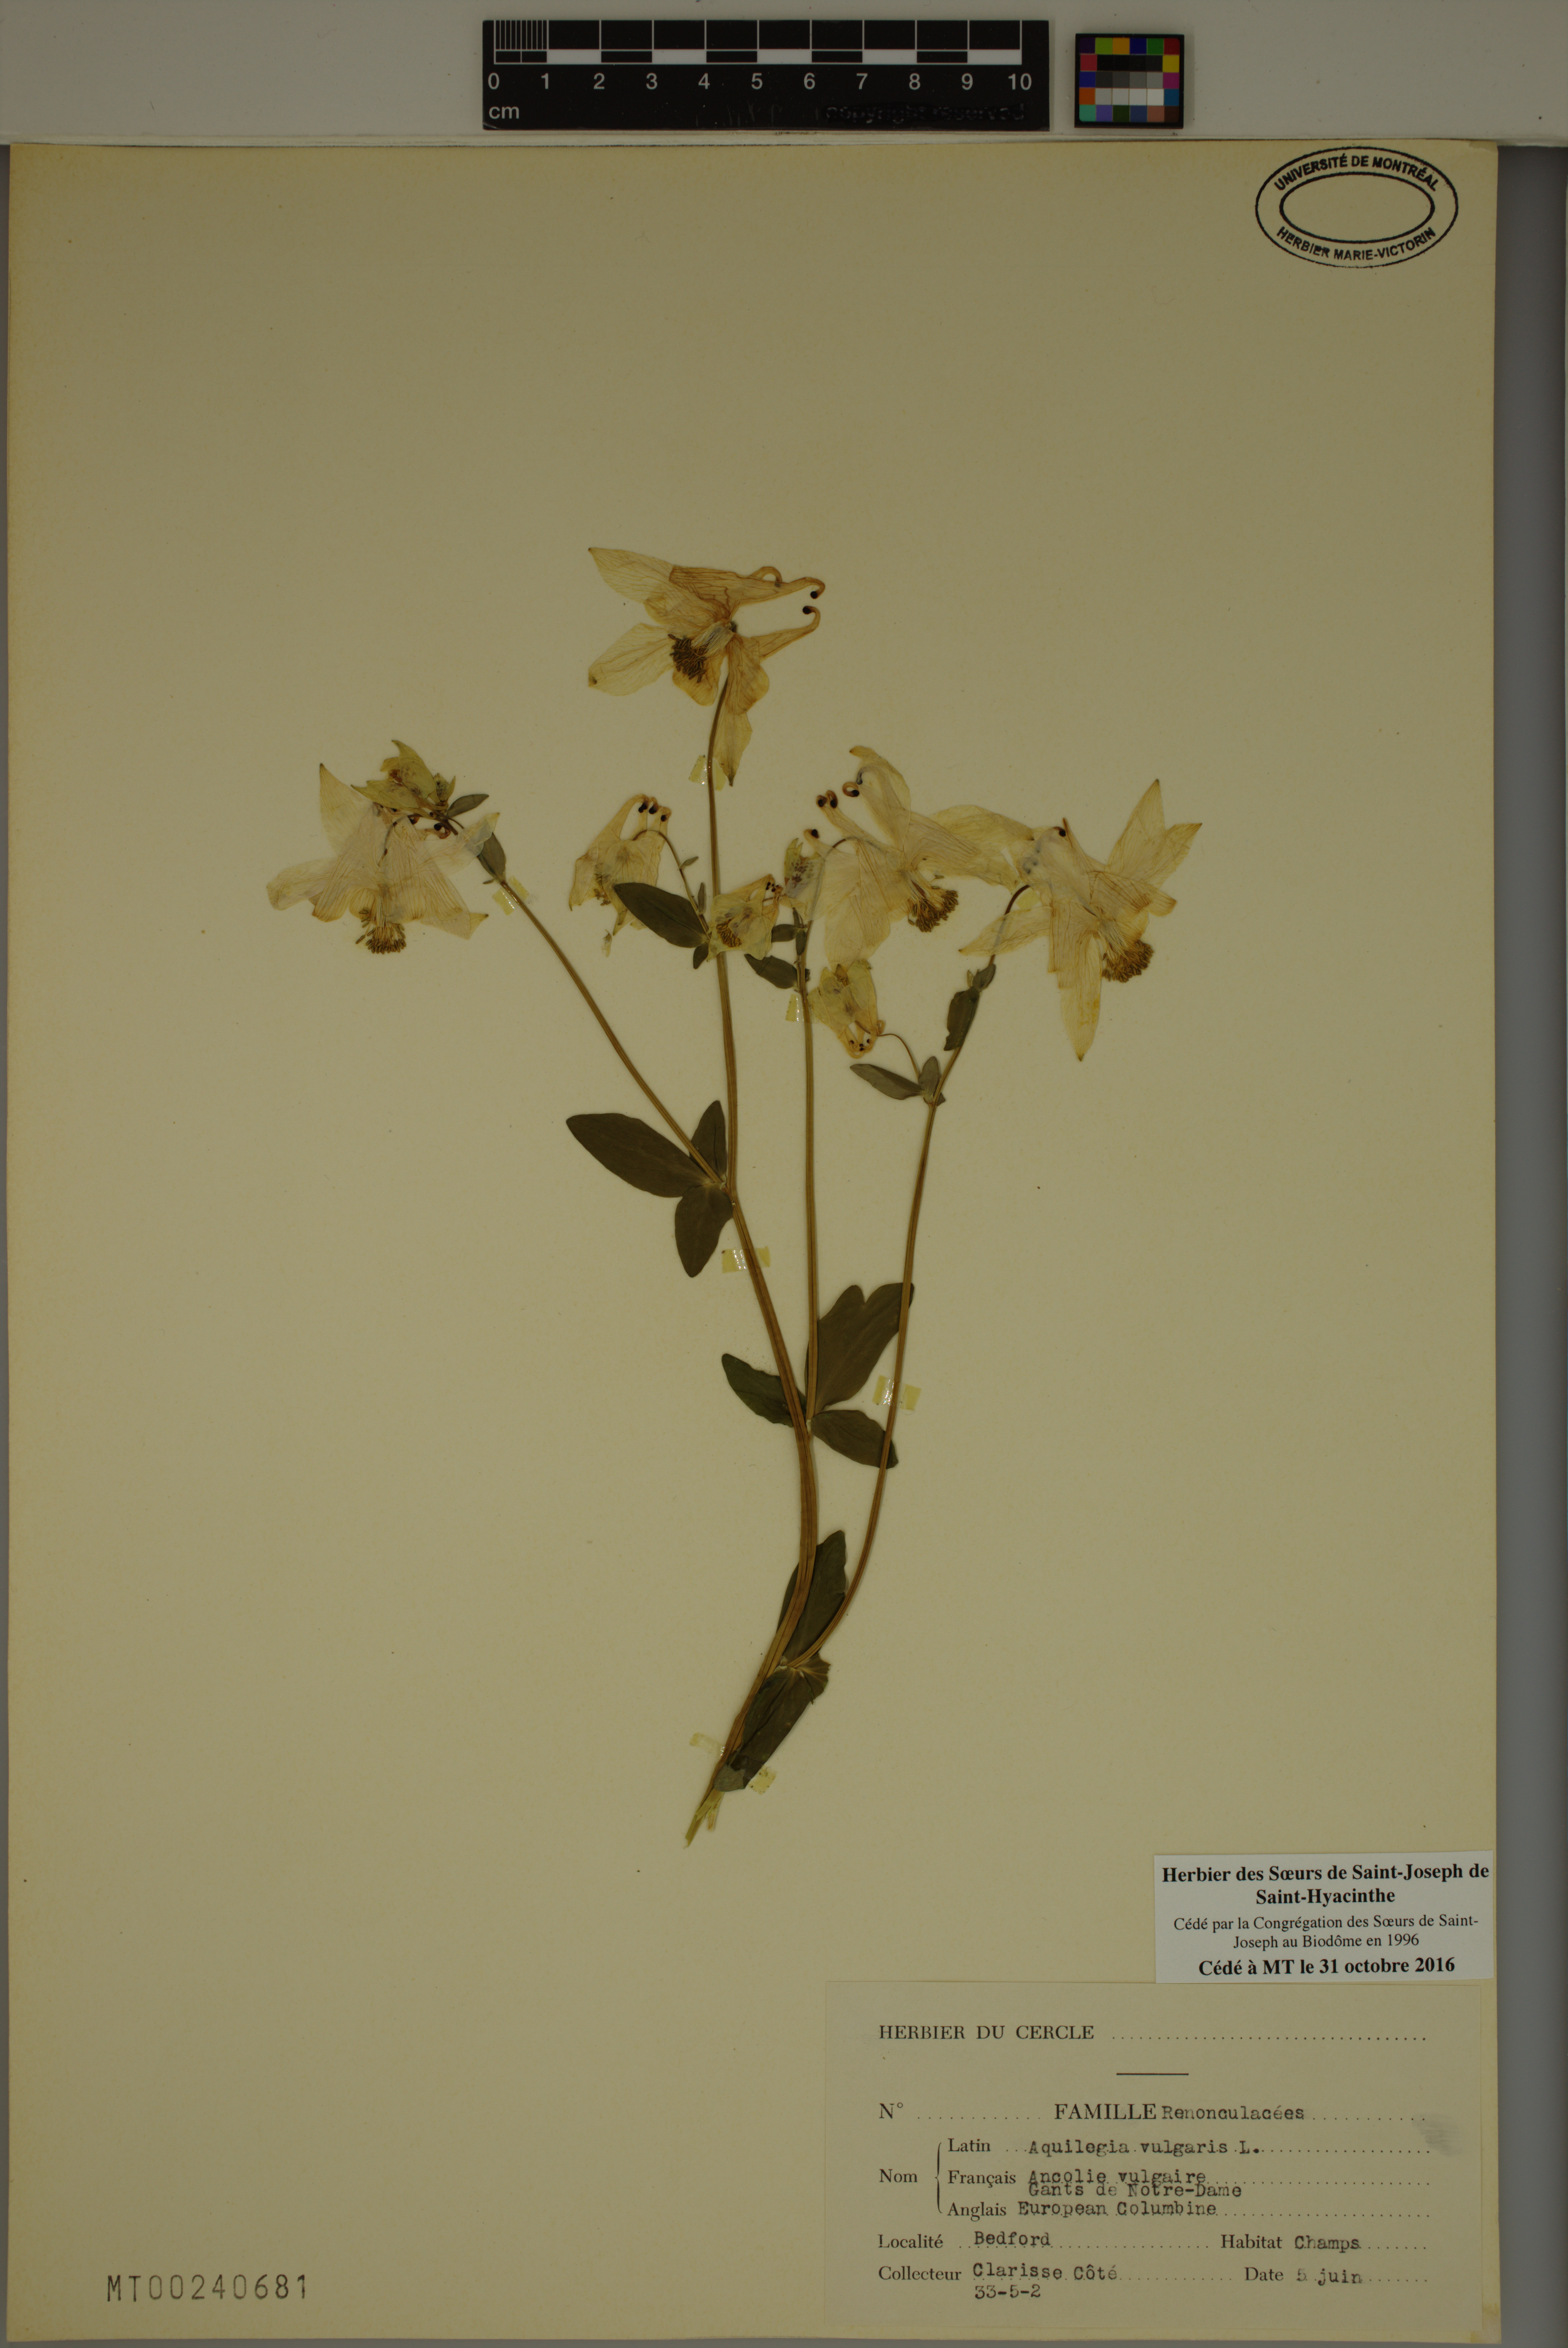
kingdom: Plantae
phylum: Tracheophyta
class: Magnoliopsida
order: Ranunculales
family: Ranunculaceae
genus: Aquilegia
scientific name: Aquilegia vulgaris
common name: Columbine
